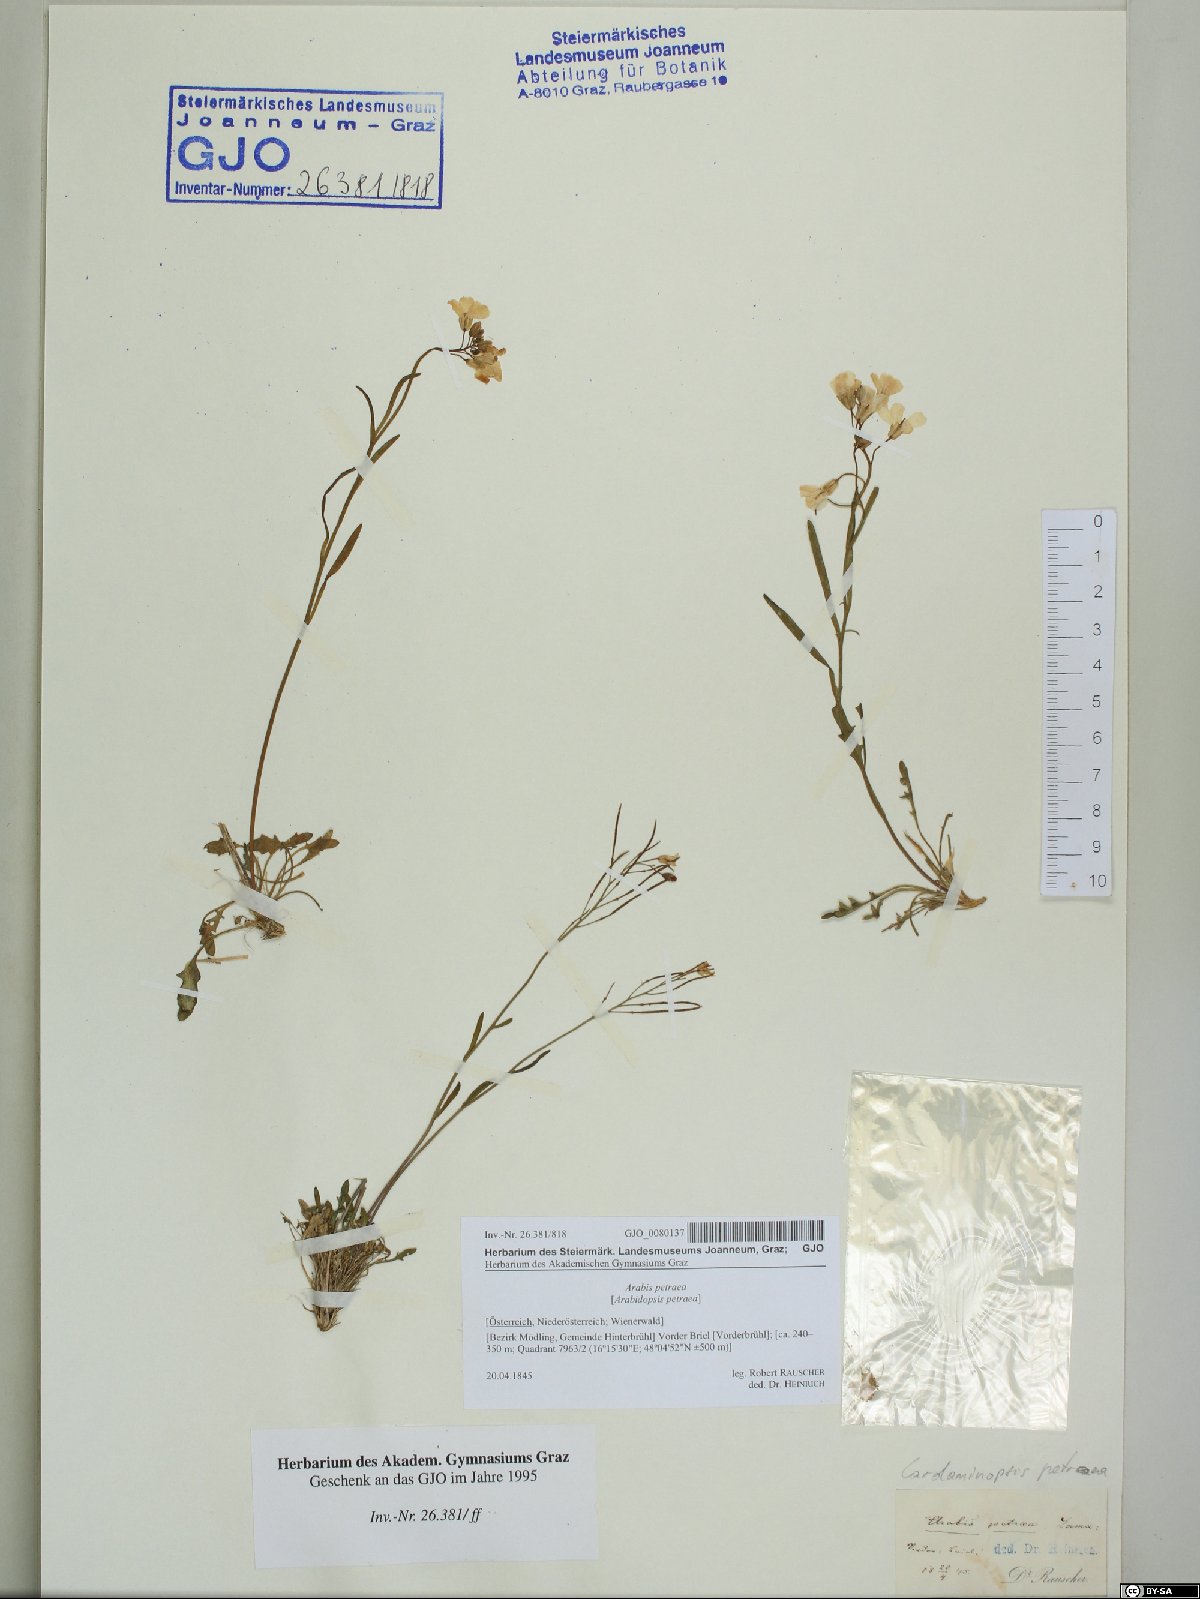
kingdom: Plantae
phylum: Tracheophyta
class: Magnoliopsida
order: Brassicales
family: Brassicaceae
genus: Arabidopsis
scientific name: Arabidopsis lyrata
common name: Lyrate rockcress
